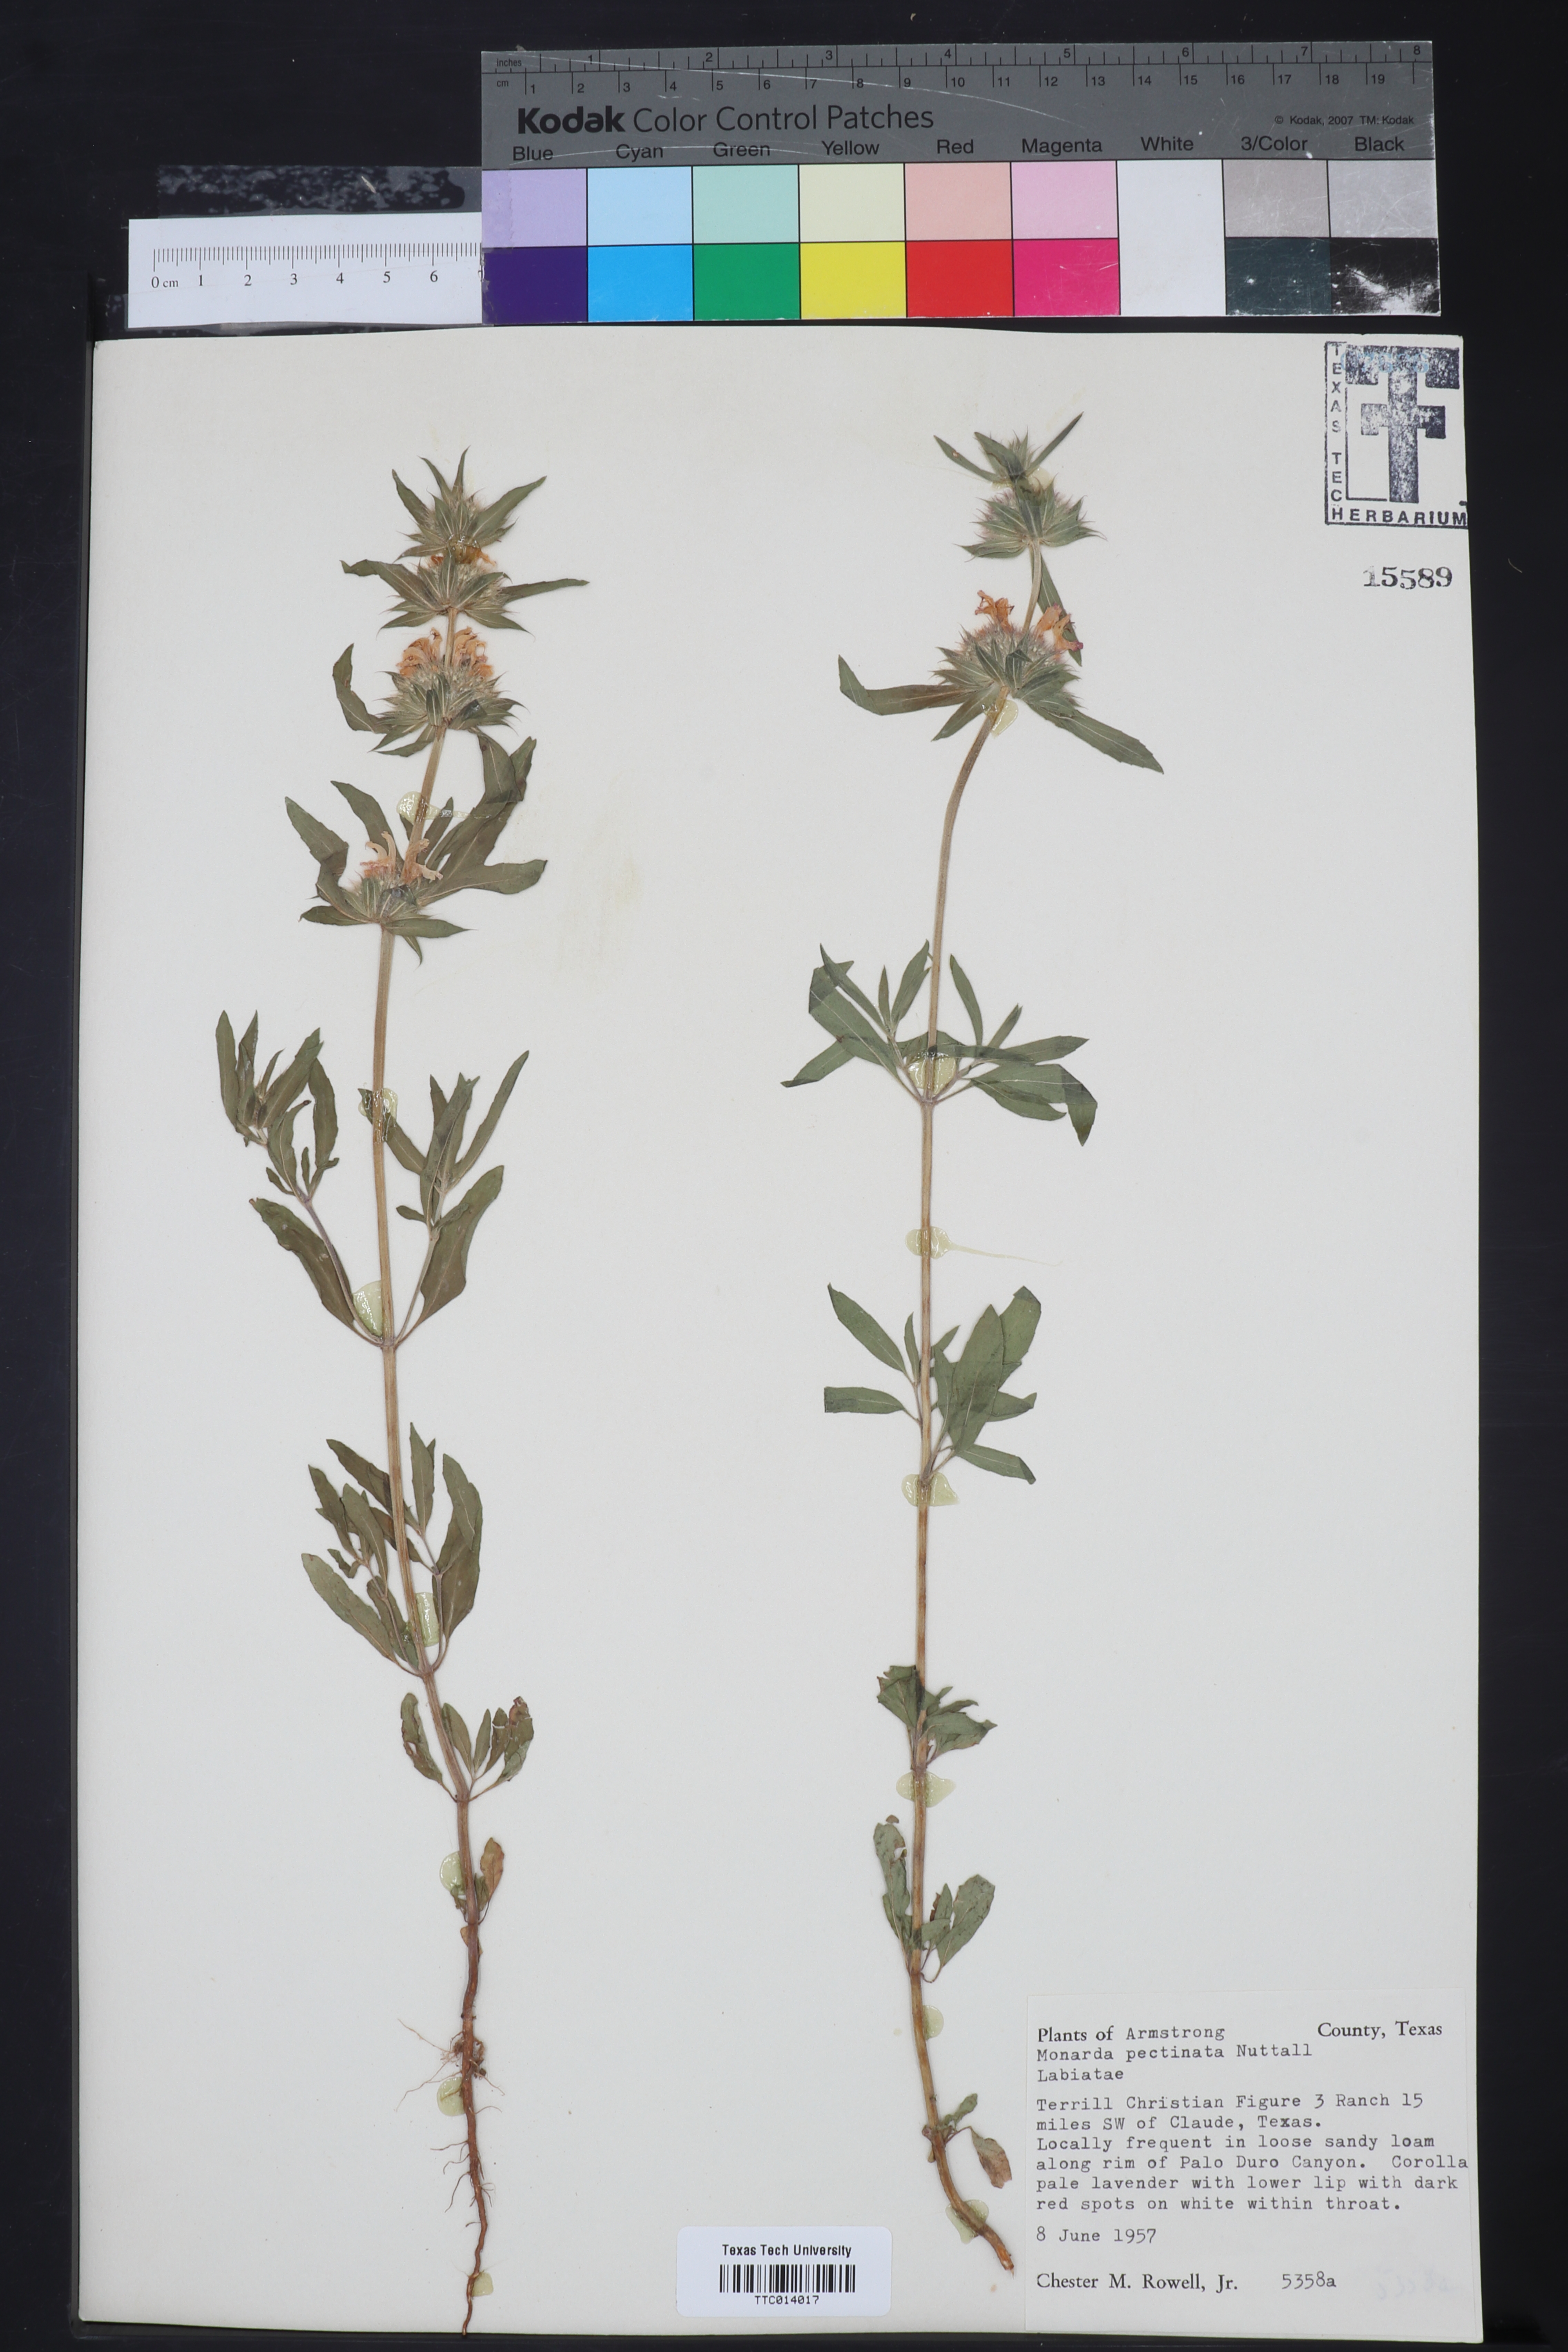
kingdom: Plantae
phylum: Tracheophyta
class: Magnoliopsida
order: Lamiales
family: Lamiaceae
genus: Monarda
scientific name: Monarda pectinata
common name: Plains beebalm
